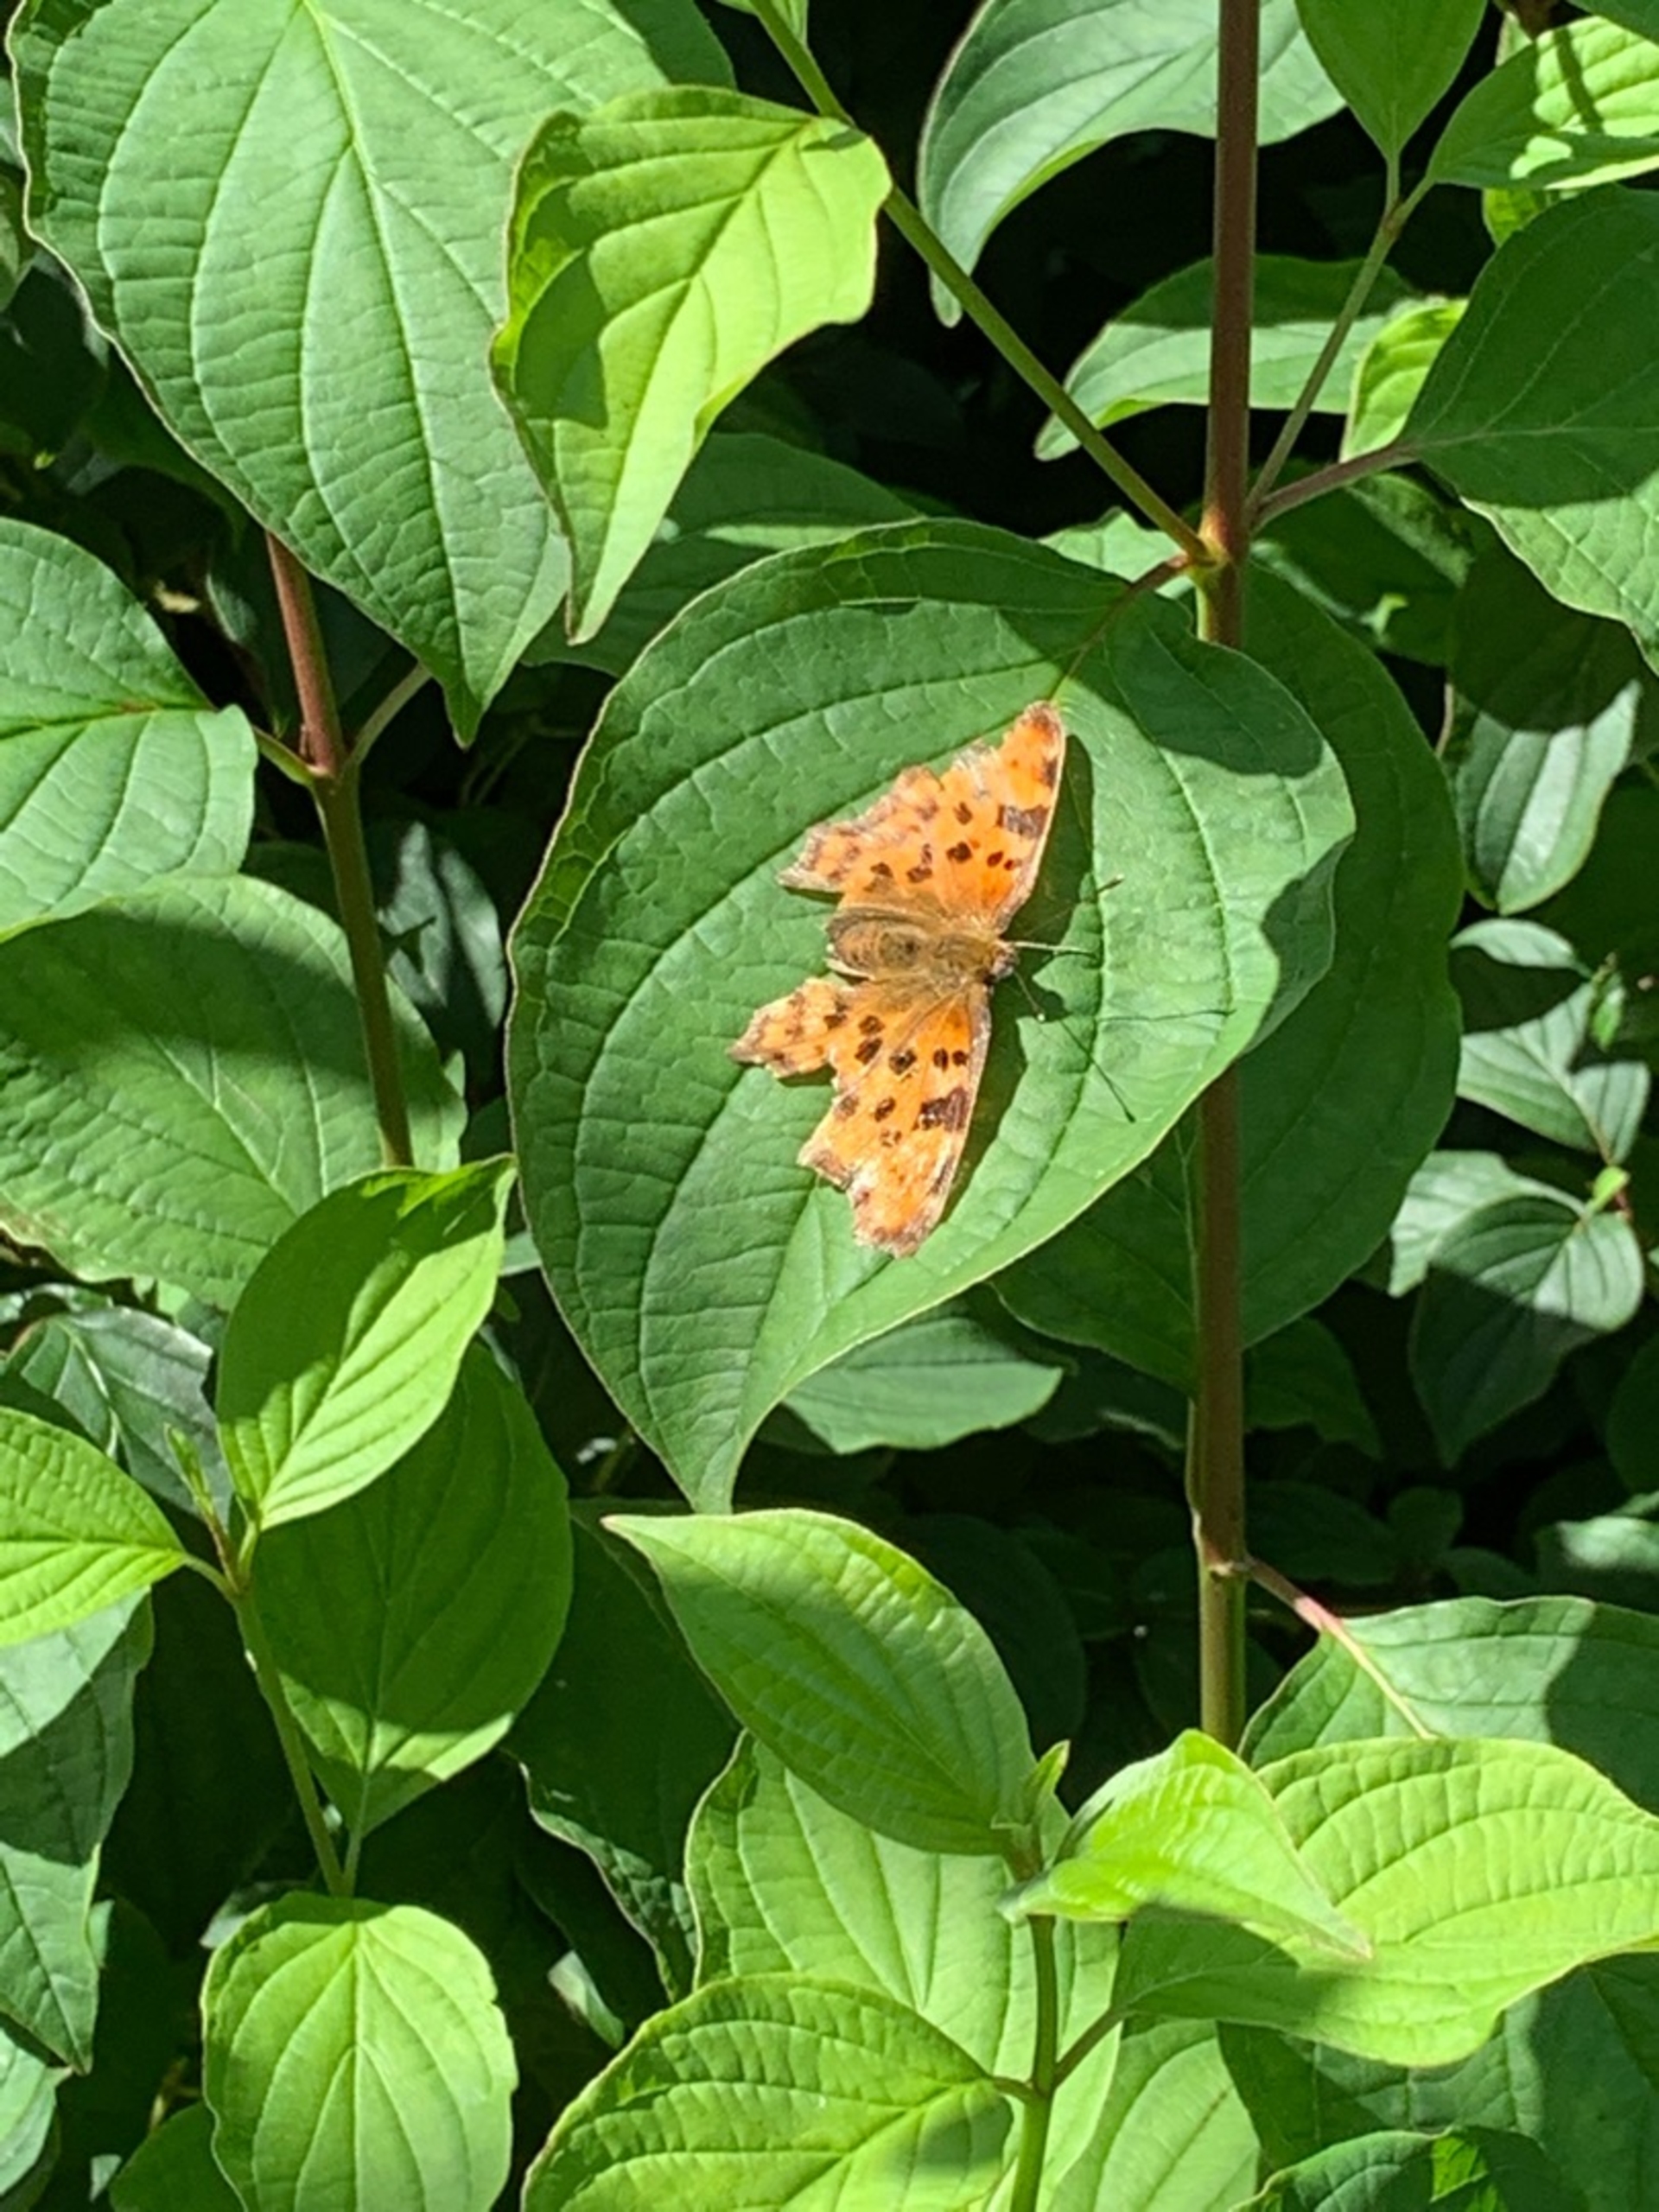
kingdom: Animalia
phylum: Arthropoda
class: Insecta
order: Lepidoptera
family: Nymphalidae
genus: Polygonia
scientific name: Polygonia c-album
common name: Det hvide C
